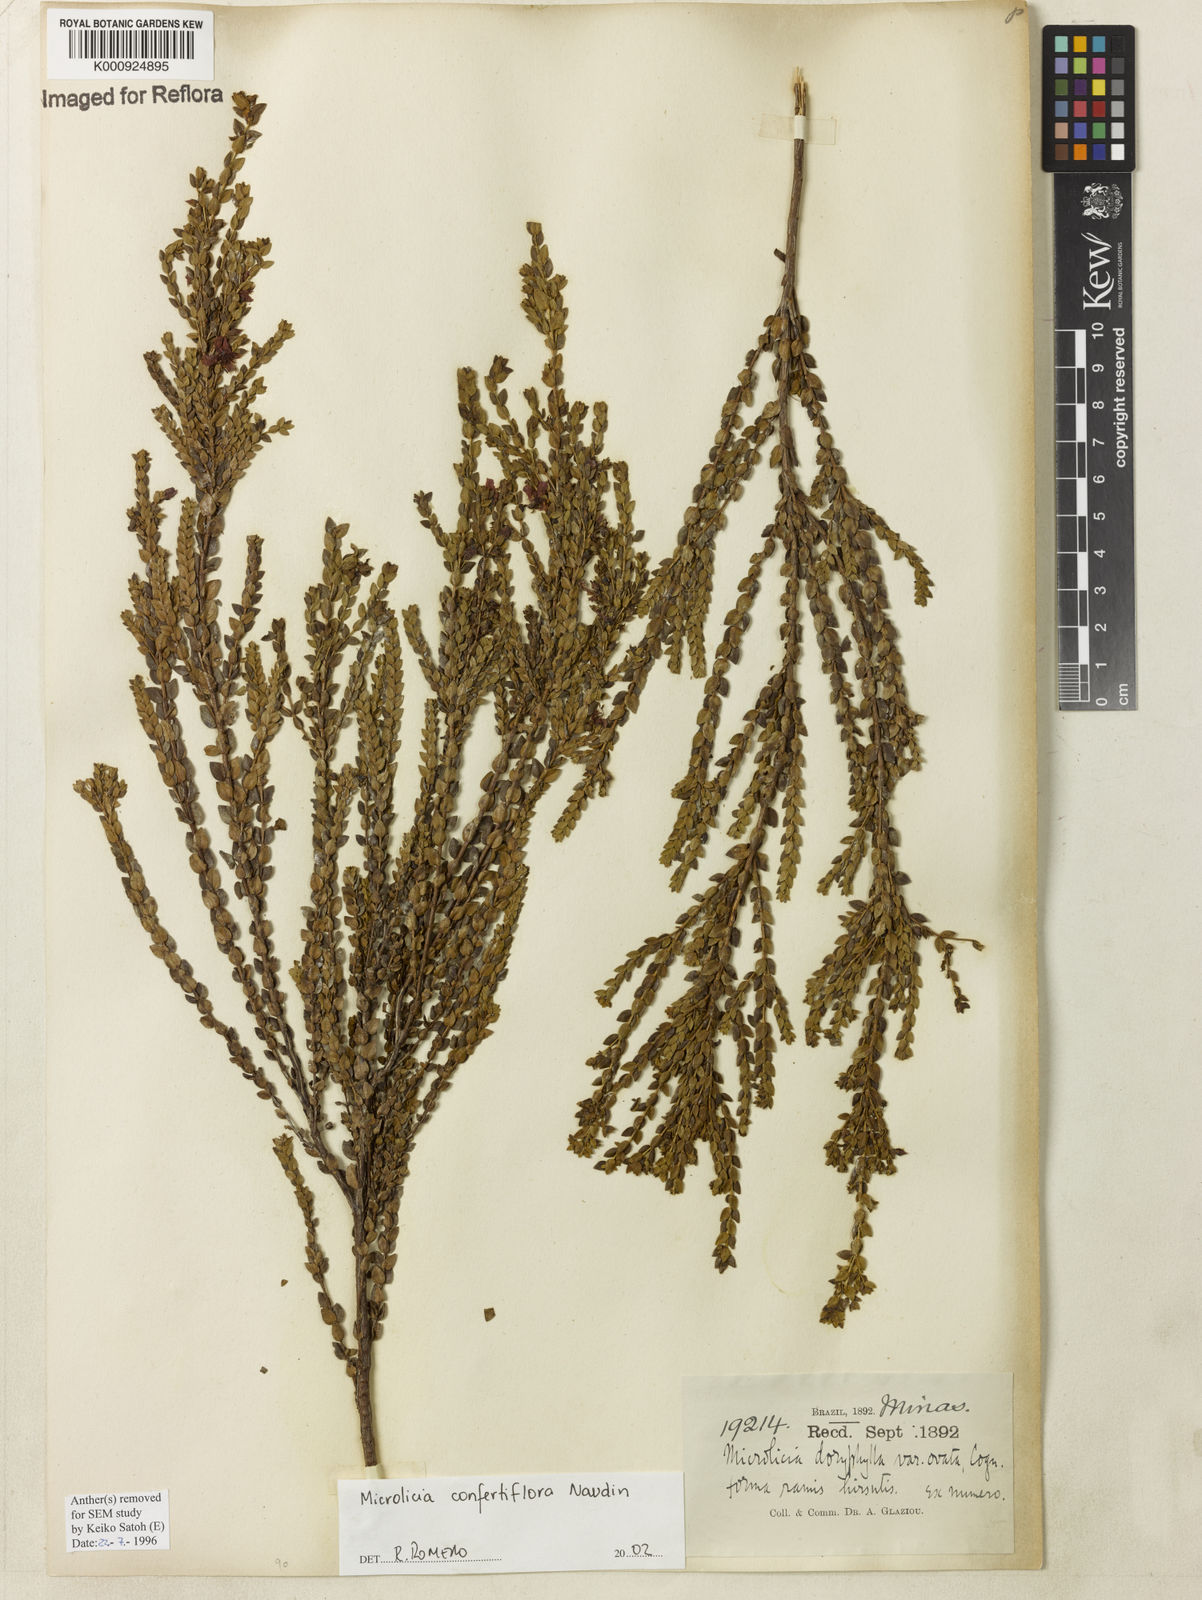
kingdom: Plantae
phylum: Tracheophyta
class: Magnoliopsida
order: Myrtales
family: Melastomataceae
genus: Microlicia
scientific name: Microlicia confertiflora
